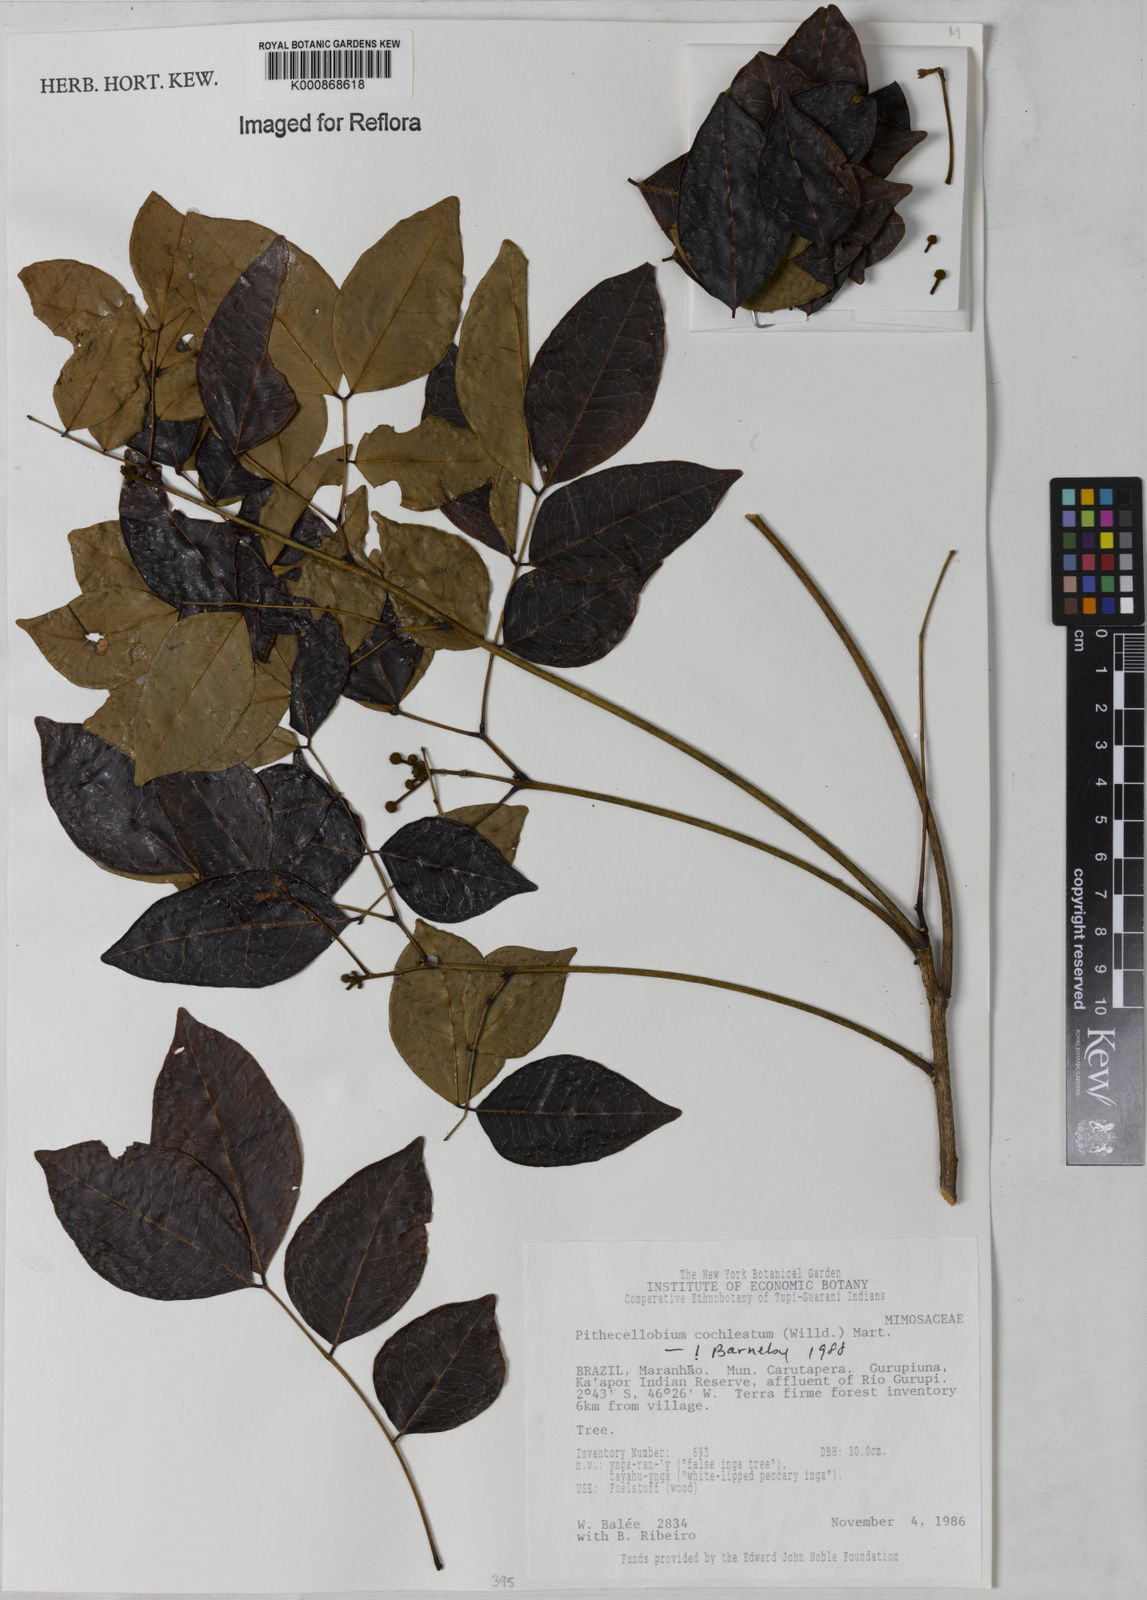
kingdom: Plantae
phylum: Tracheophyta
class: Magnoliopsida
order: Fabales
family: Fabaceae
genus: Jupunba
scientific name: Jupunba cochleata
